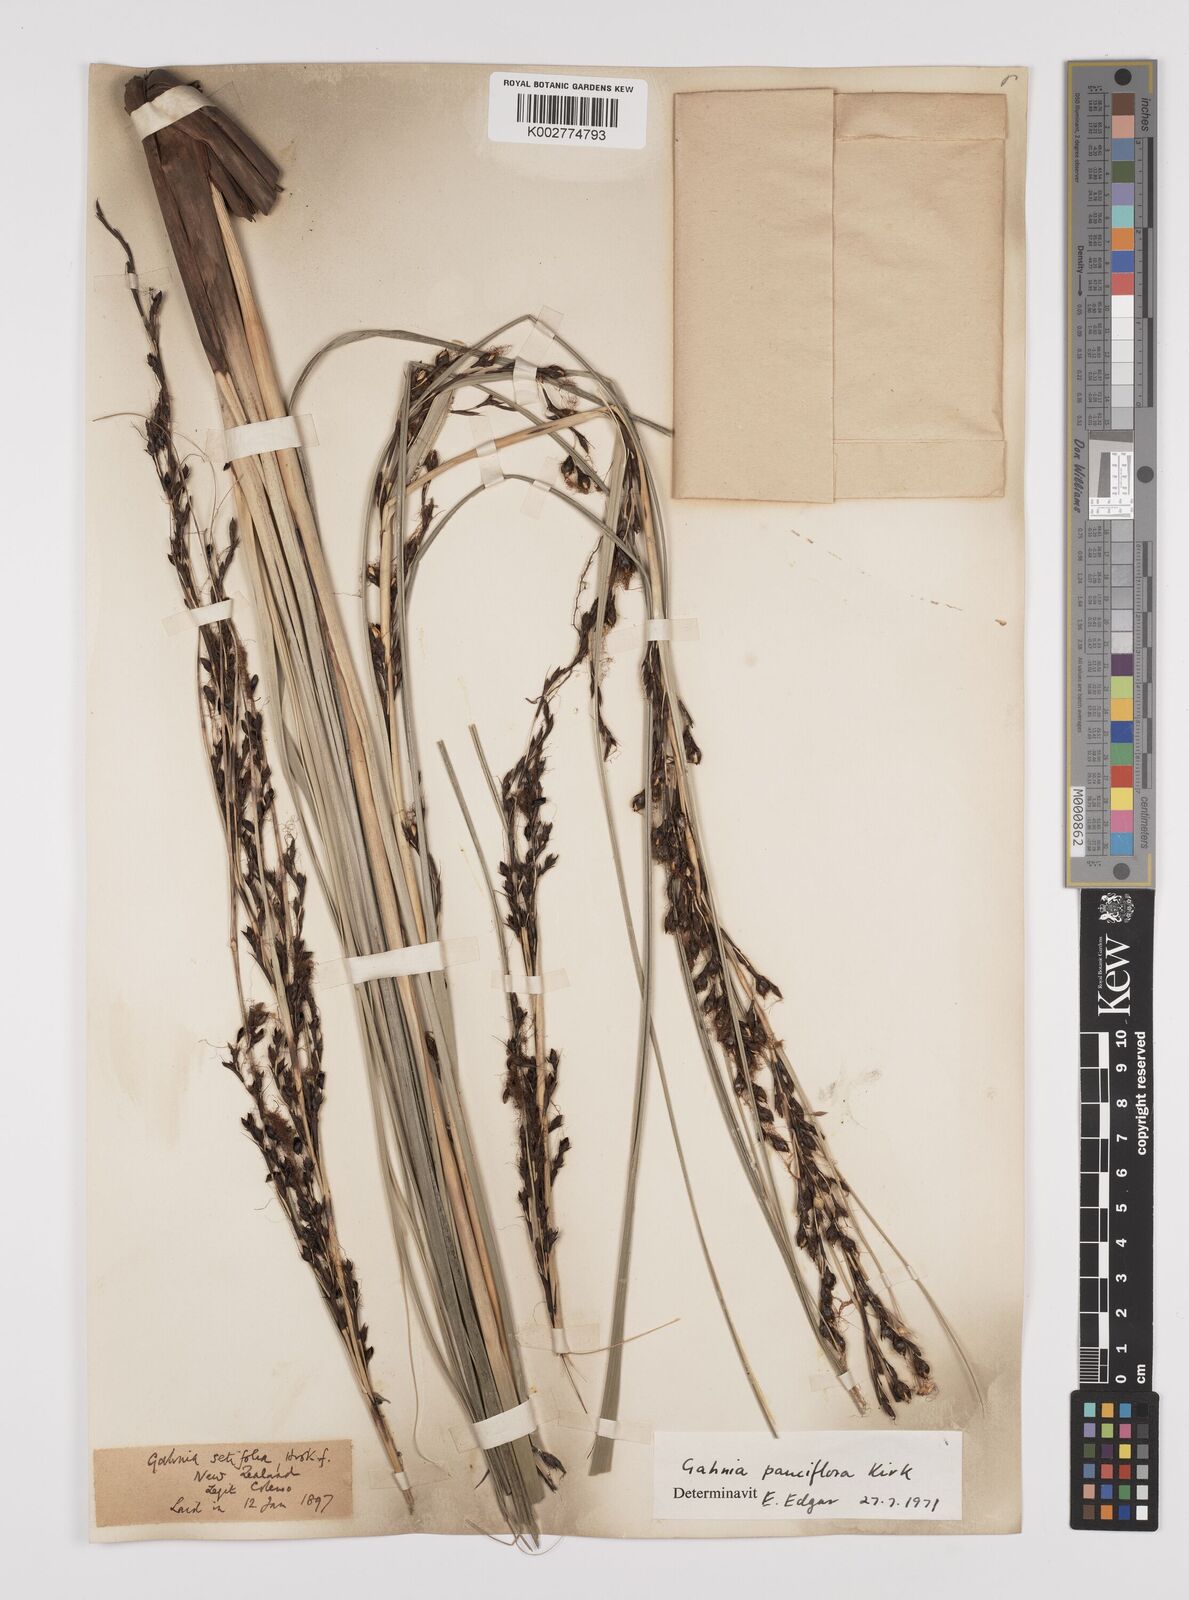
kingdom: Plantae
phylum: Tracheophyta
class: Liliopsida
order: Poales
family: Cyperaceae
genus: Gahnia
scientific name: Gahnia pauciflora
